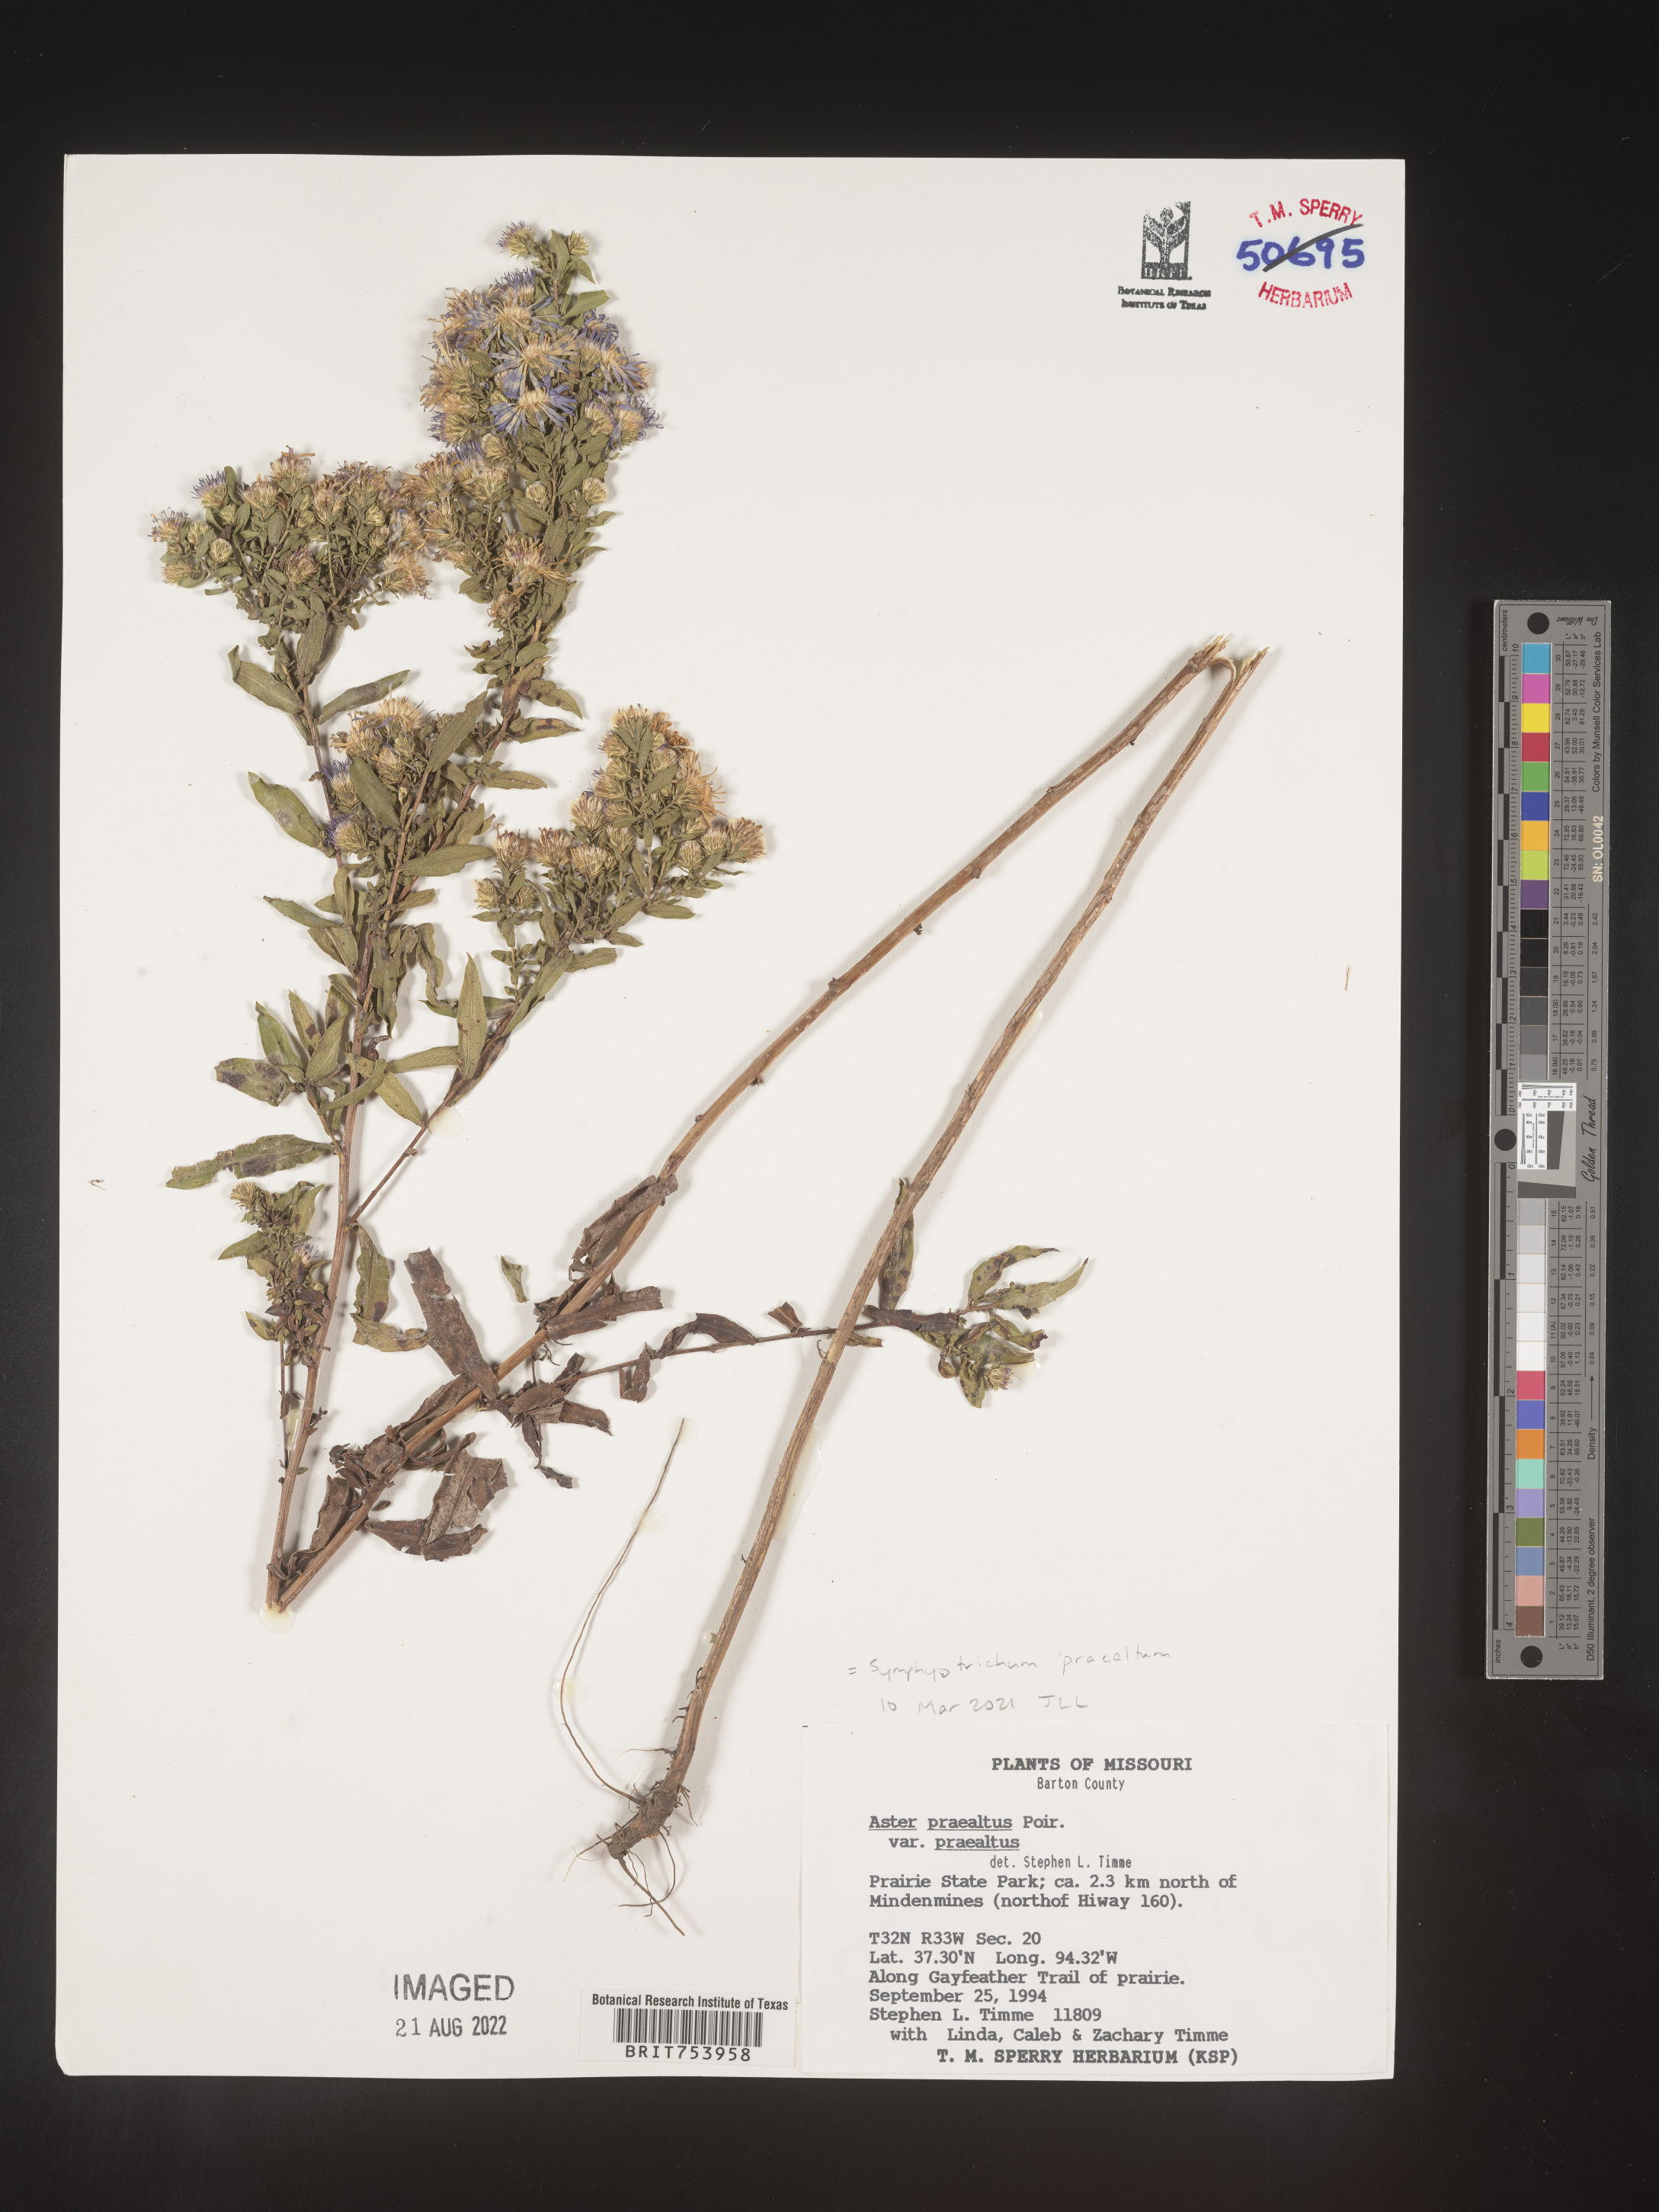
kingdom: Plantae
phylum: Tracheophyta
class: Magnoliopsida
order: Asterales
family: Asteraceae
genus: Symphyotrichum
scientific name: Symphyotrichum praealtum
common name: Willow aster
